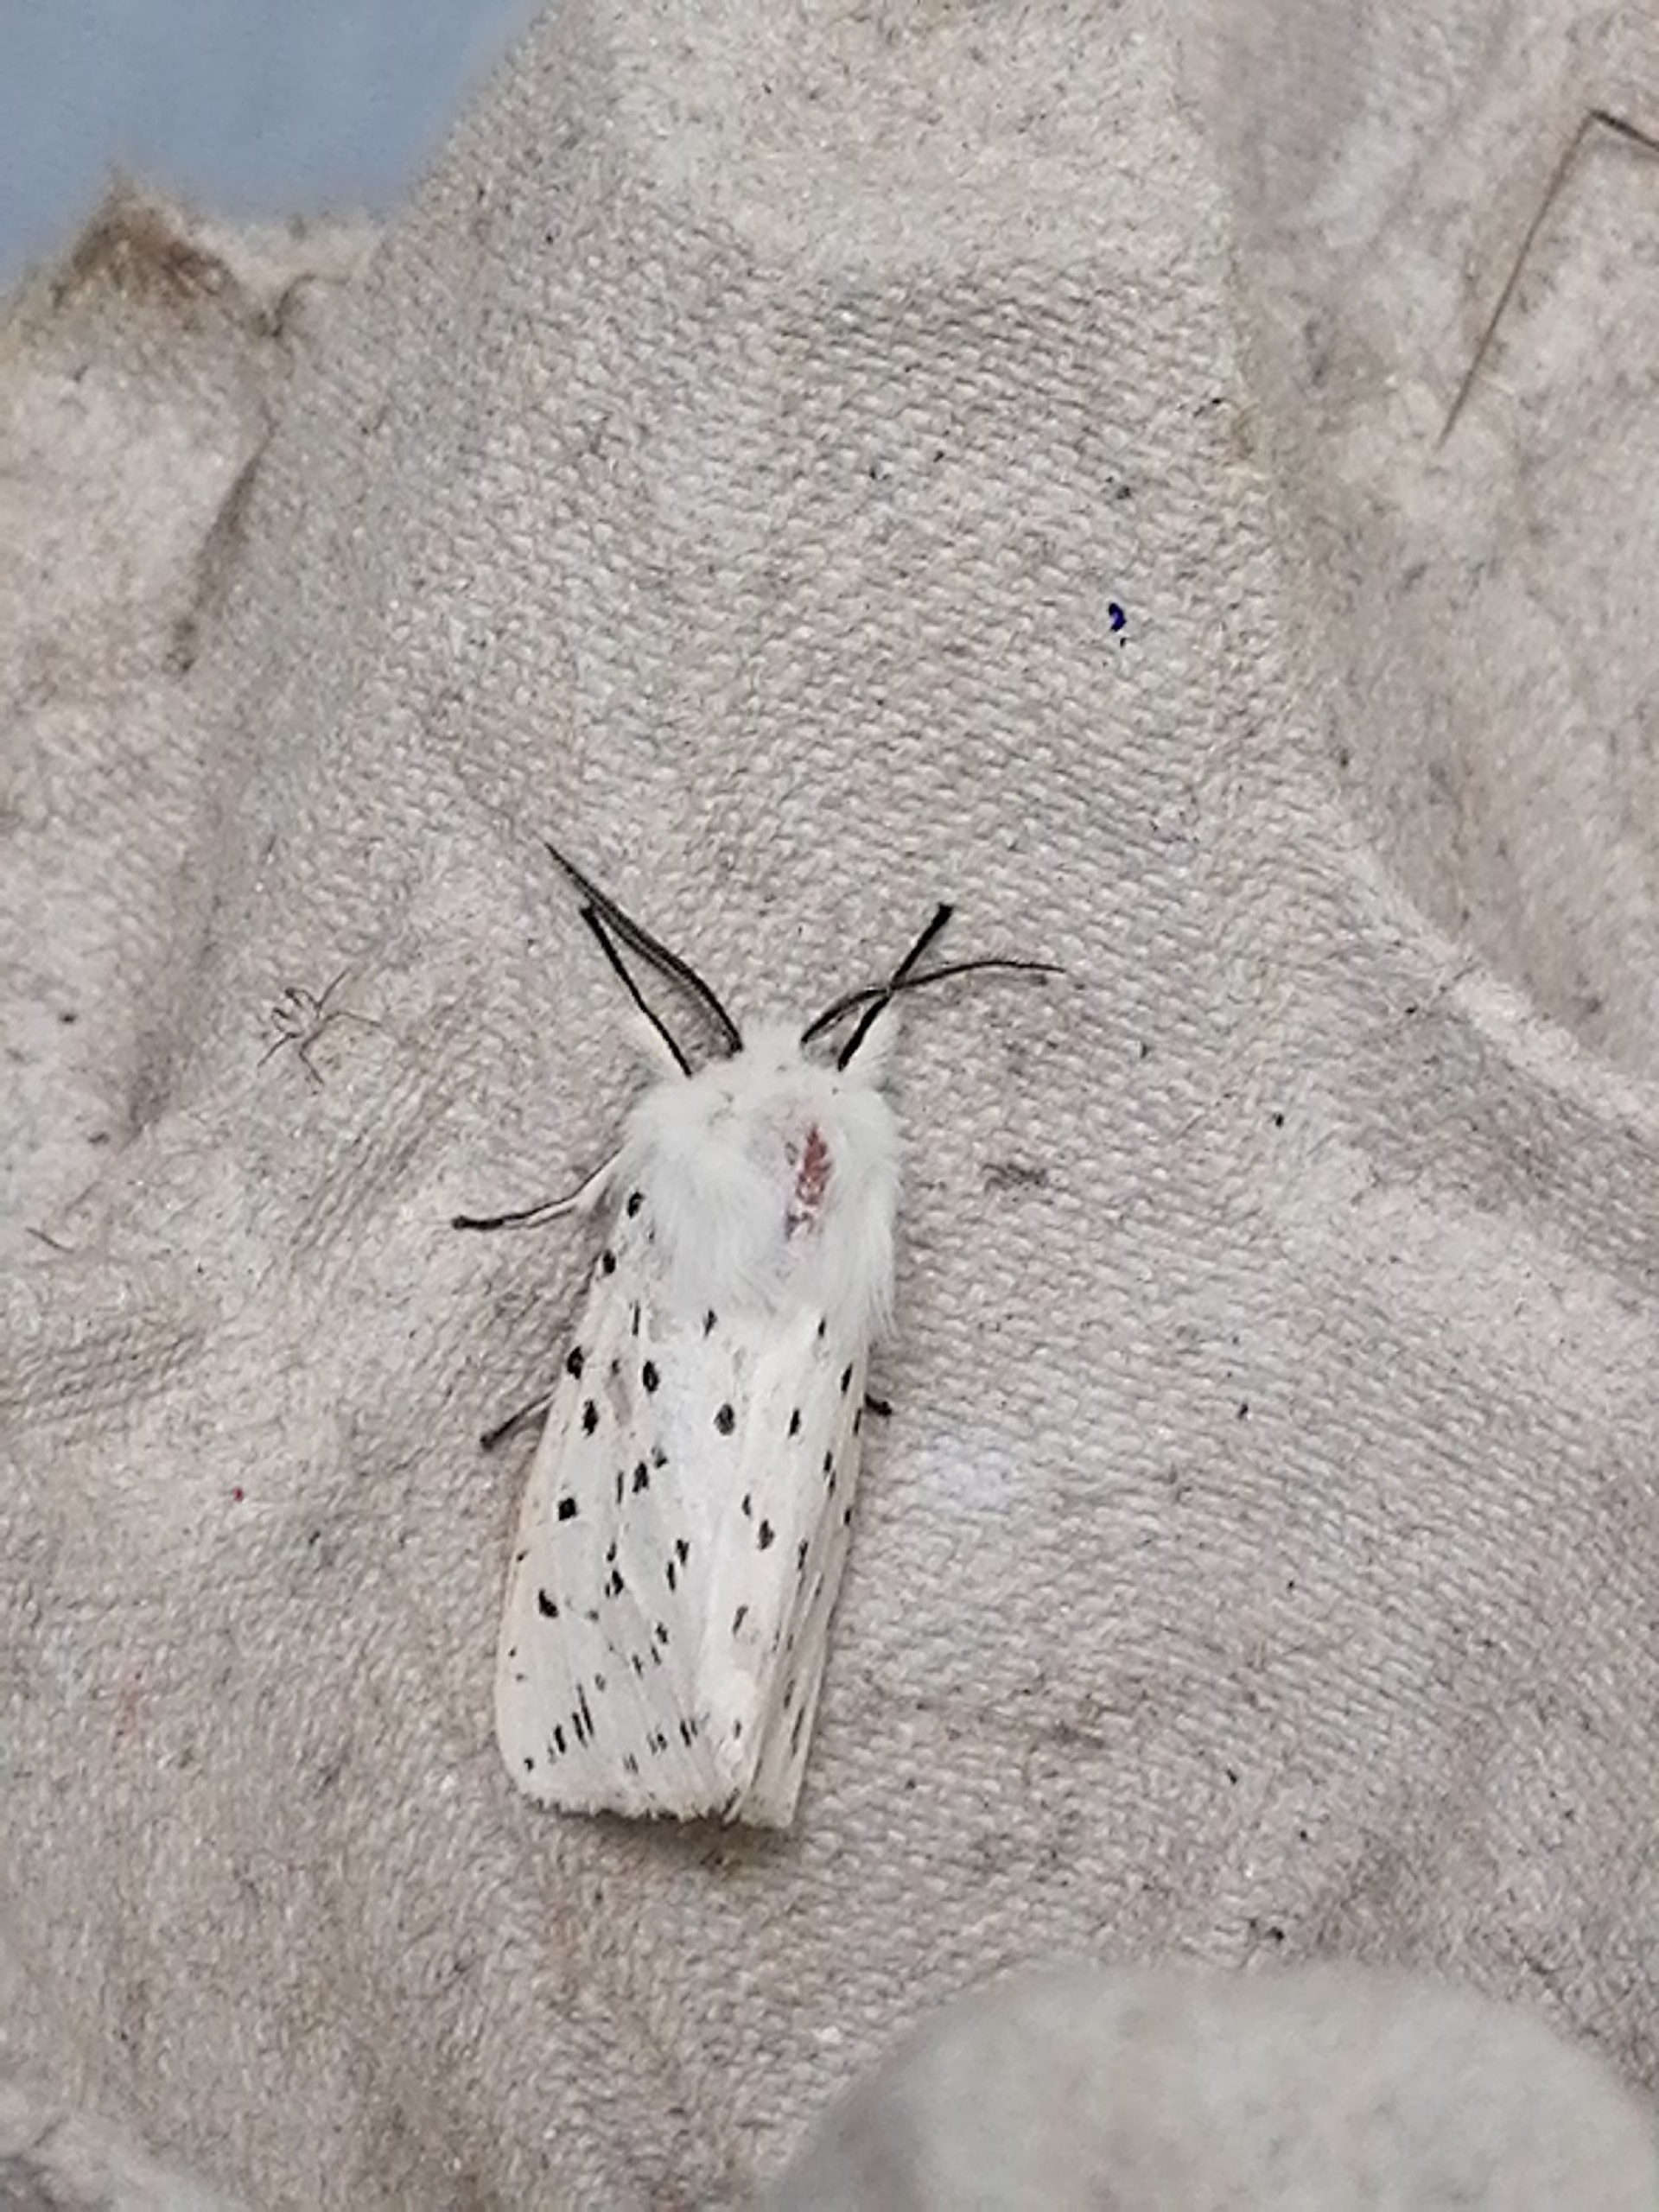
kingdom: Animalia
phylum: Arthropoda
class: Insecta
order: Lepidoptera
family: Erebidae
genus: Spilosoma
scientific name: Spilosoma lubricipeda
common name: Almindelig tigerspinder
